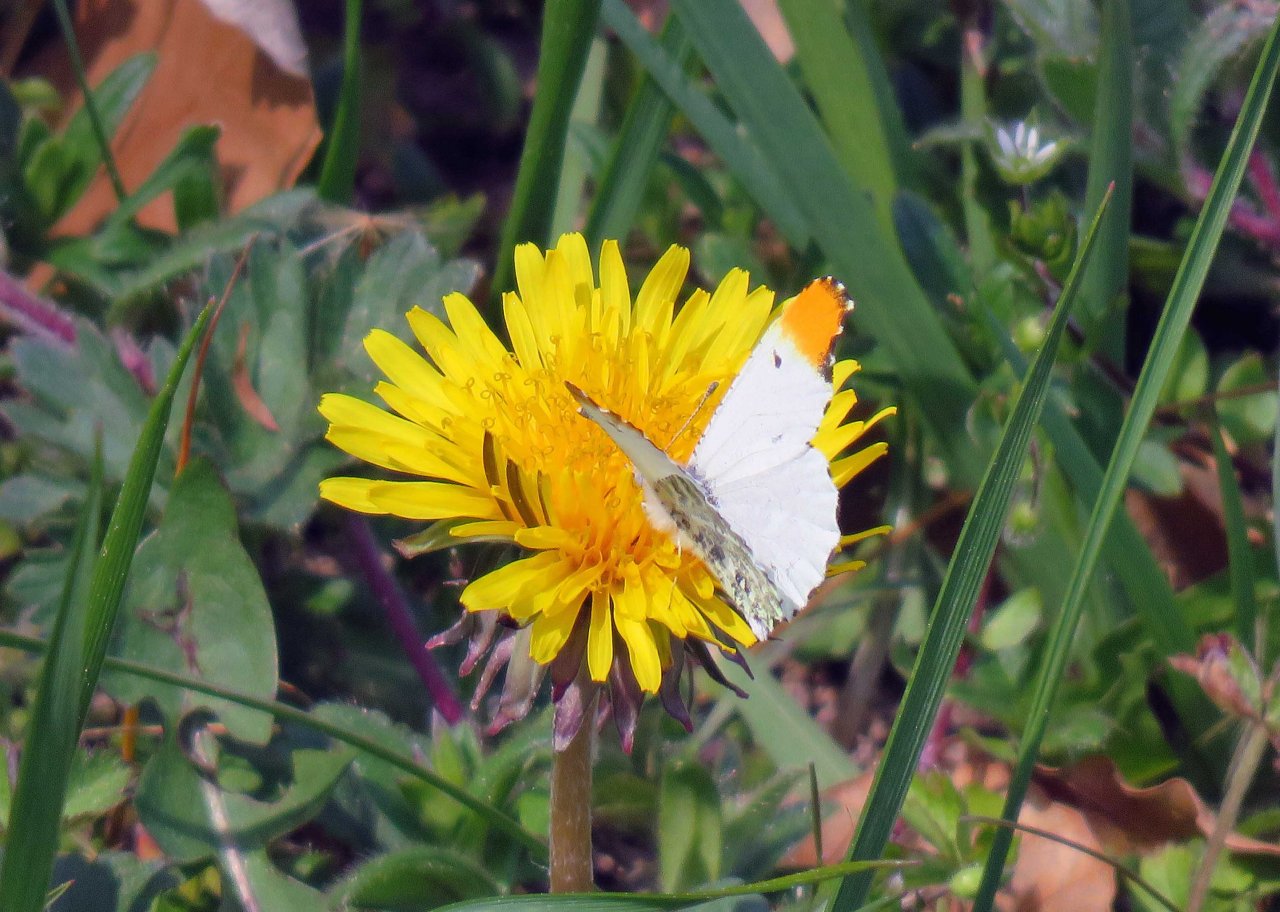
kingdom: Animalia
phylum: Arthropoda
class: Insecta
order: Lepidoptera
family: Pieridae
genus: Anthocharis
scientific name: Anthocharis midea
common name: Falcate Orangetip
